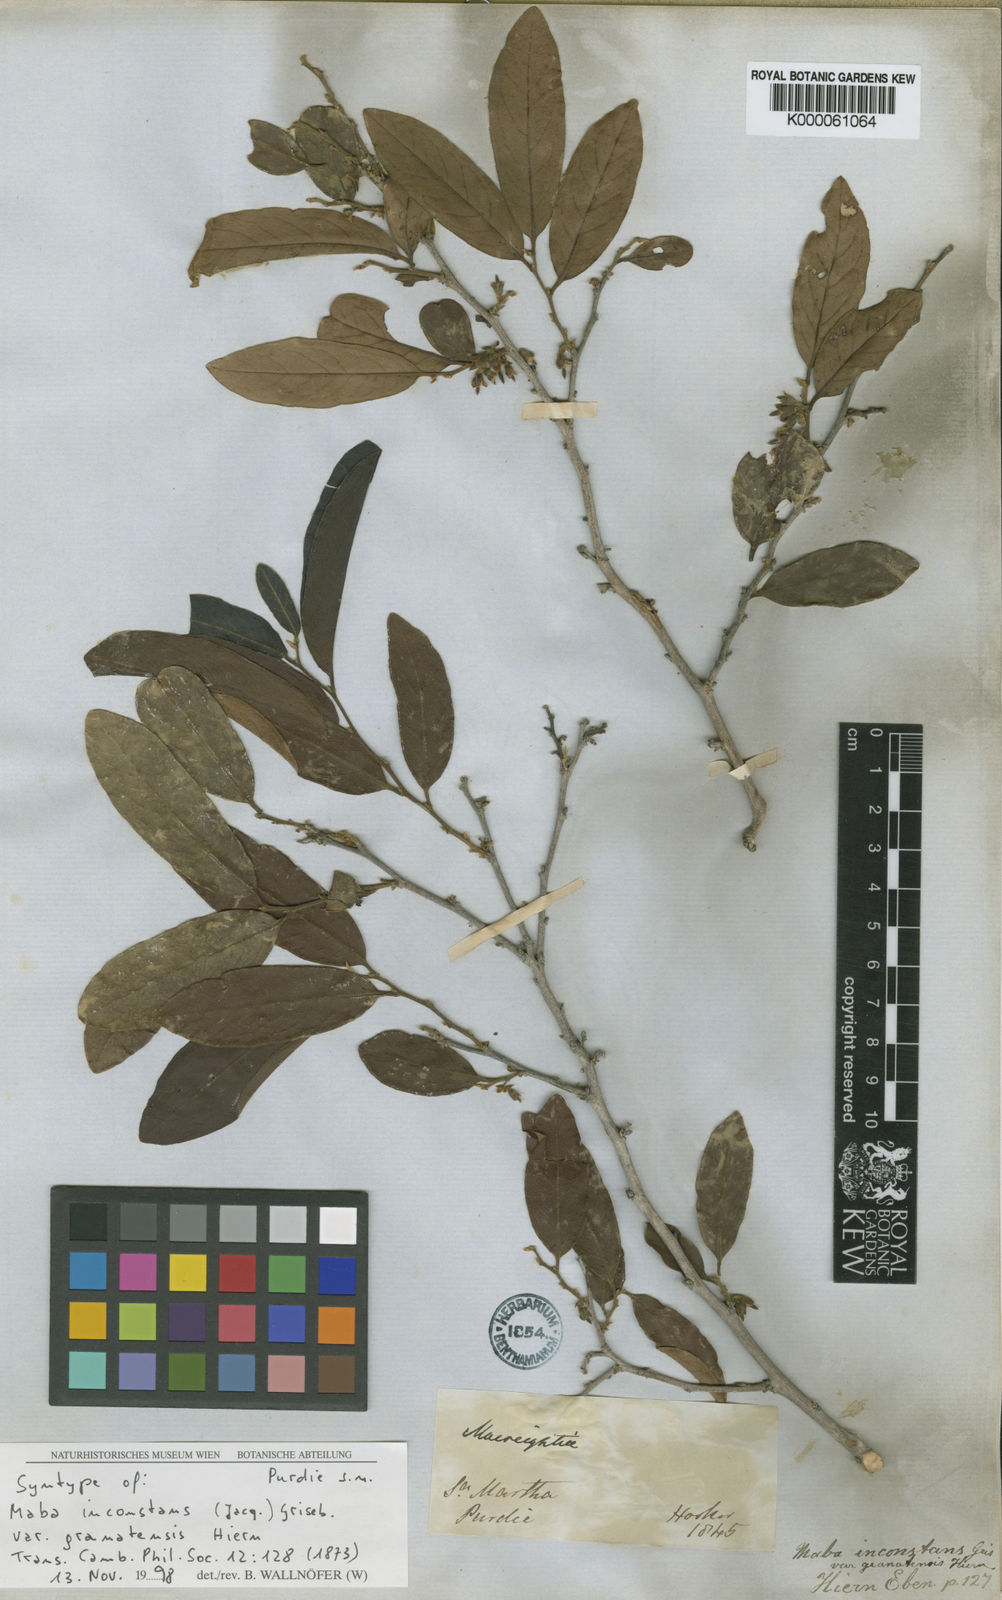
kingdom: Plantae
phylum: Tracheophyta
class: Magnoliopsida
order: Ericales
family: Ebenaceae
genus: Diospyros
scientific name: Diospyros inconstans
